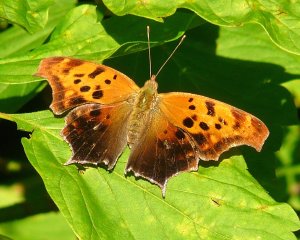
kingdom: Animalia
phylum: Arthropoda
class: Insecta
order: Lepidoptera
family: Nymphalidae
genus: Polygonia
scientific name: Polygonia interrogationis
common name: Question Mark
